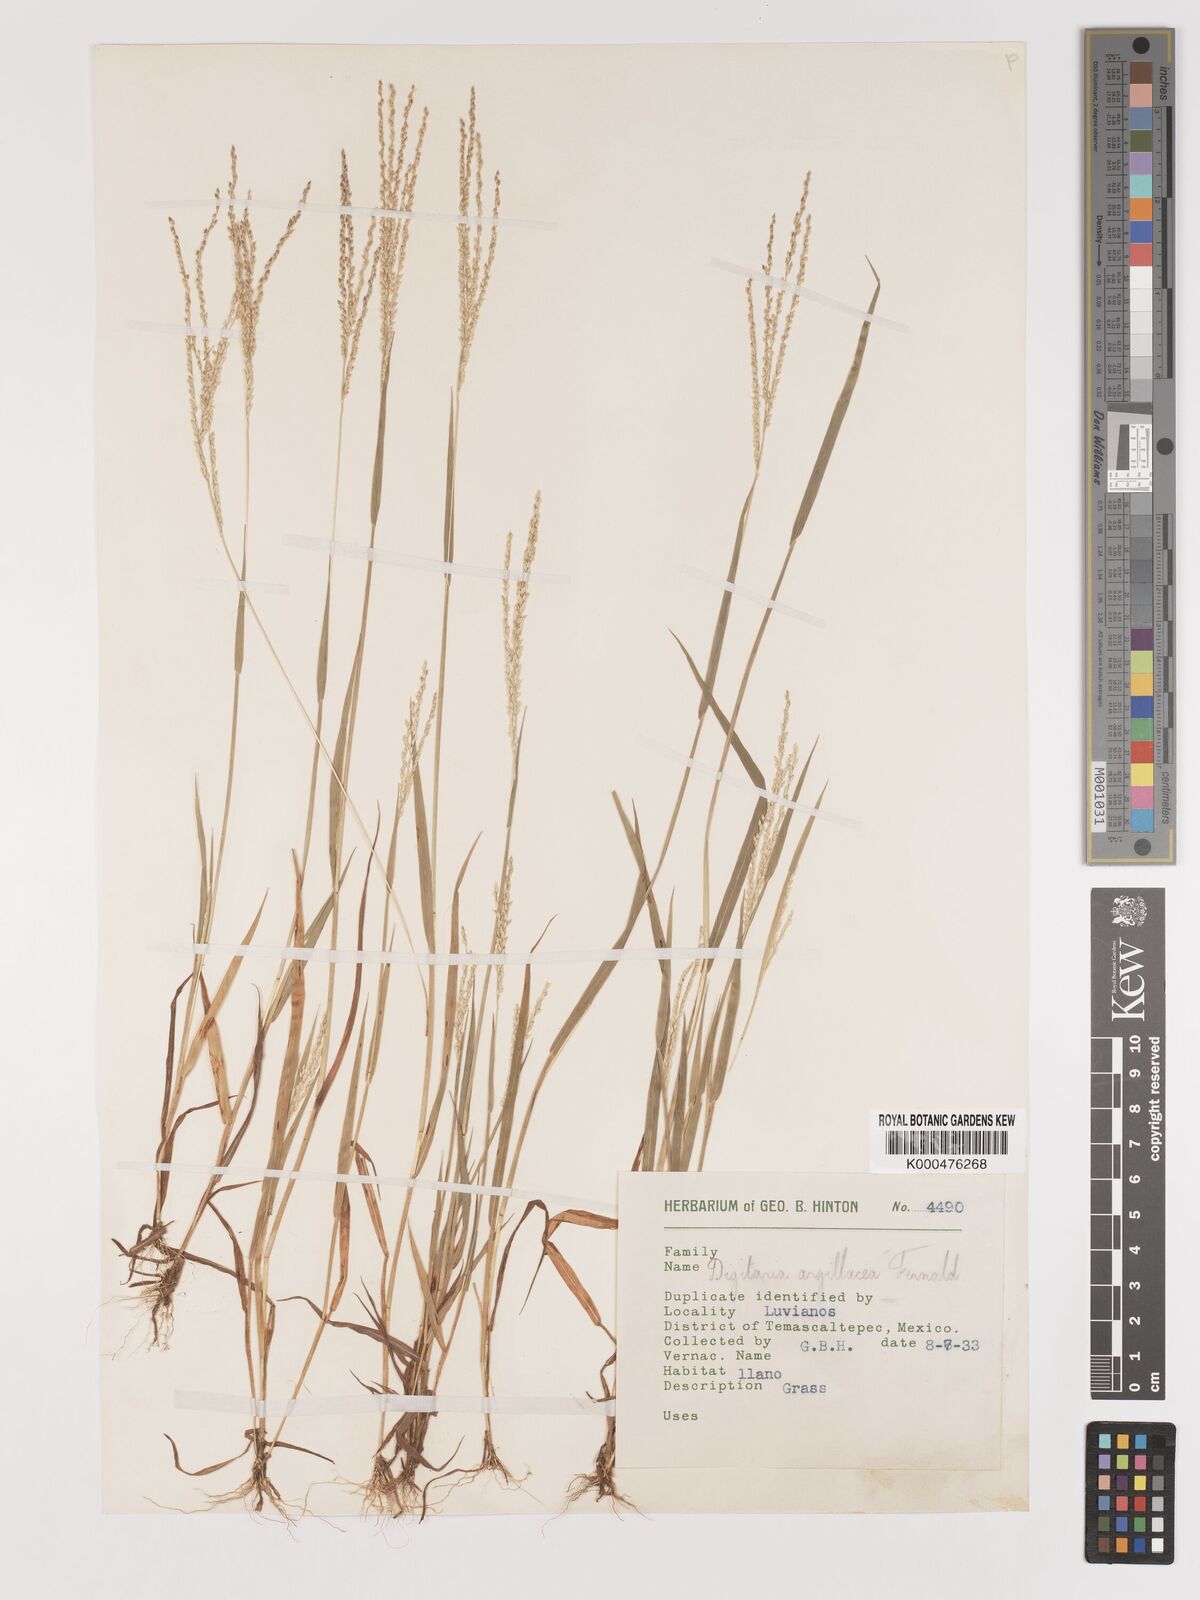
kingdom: Plantae
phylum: Tracheophyta
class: Liliopsida
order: Poales
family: Poaceae
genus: Digitaria
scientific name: Digitaria argillacea
